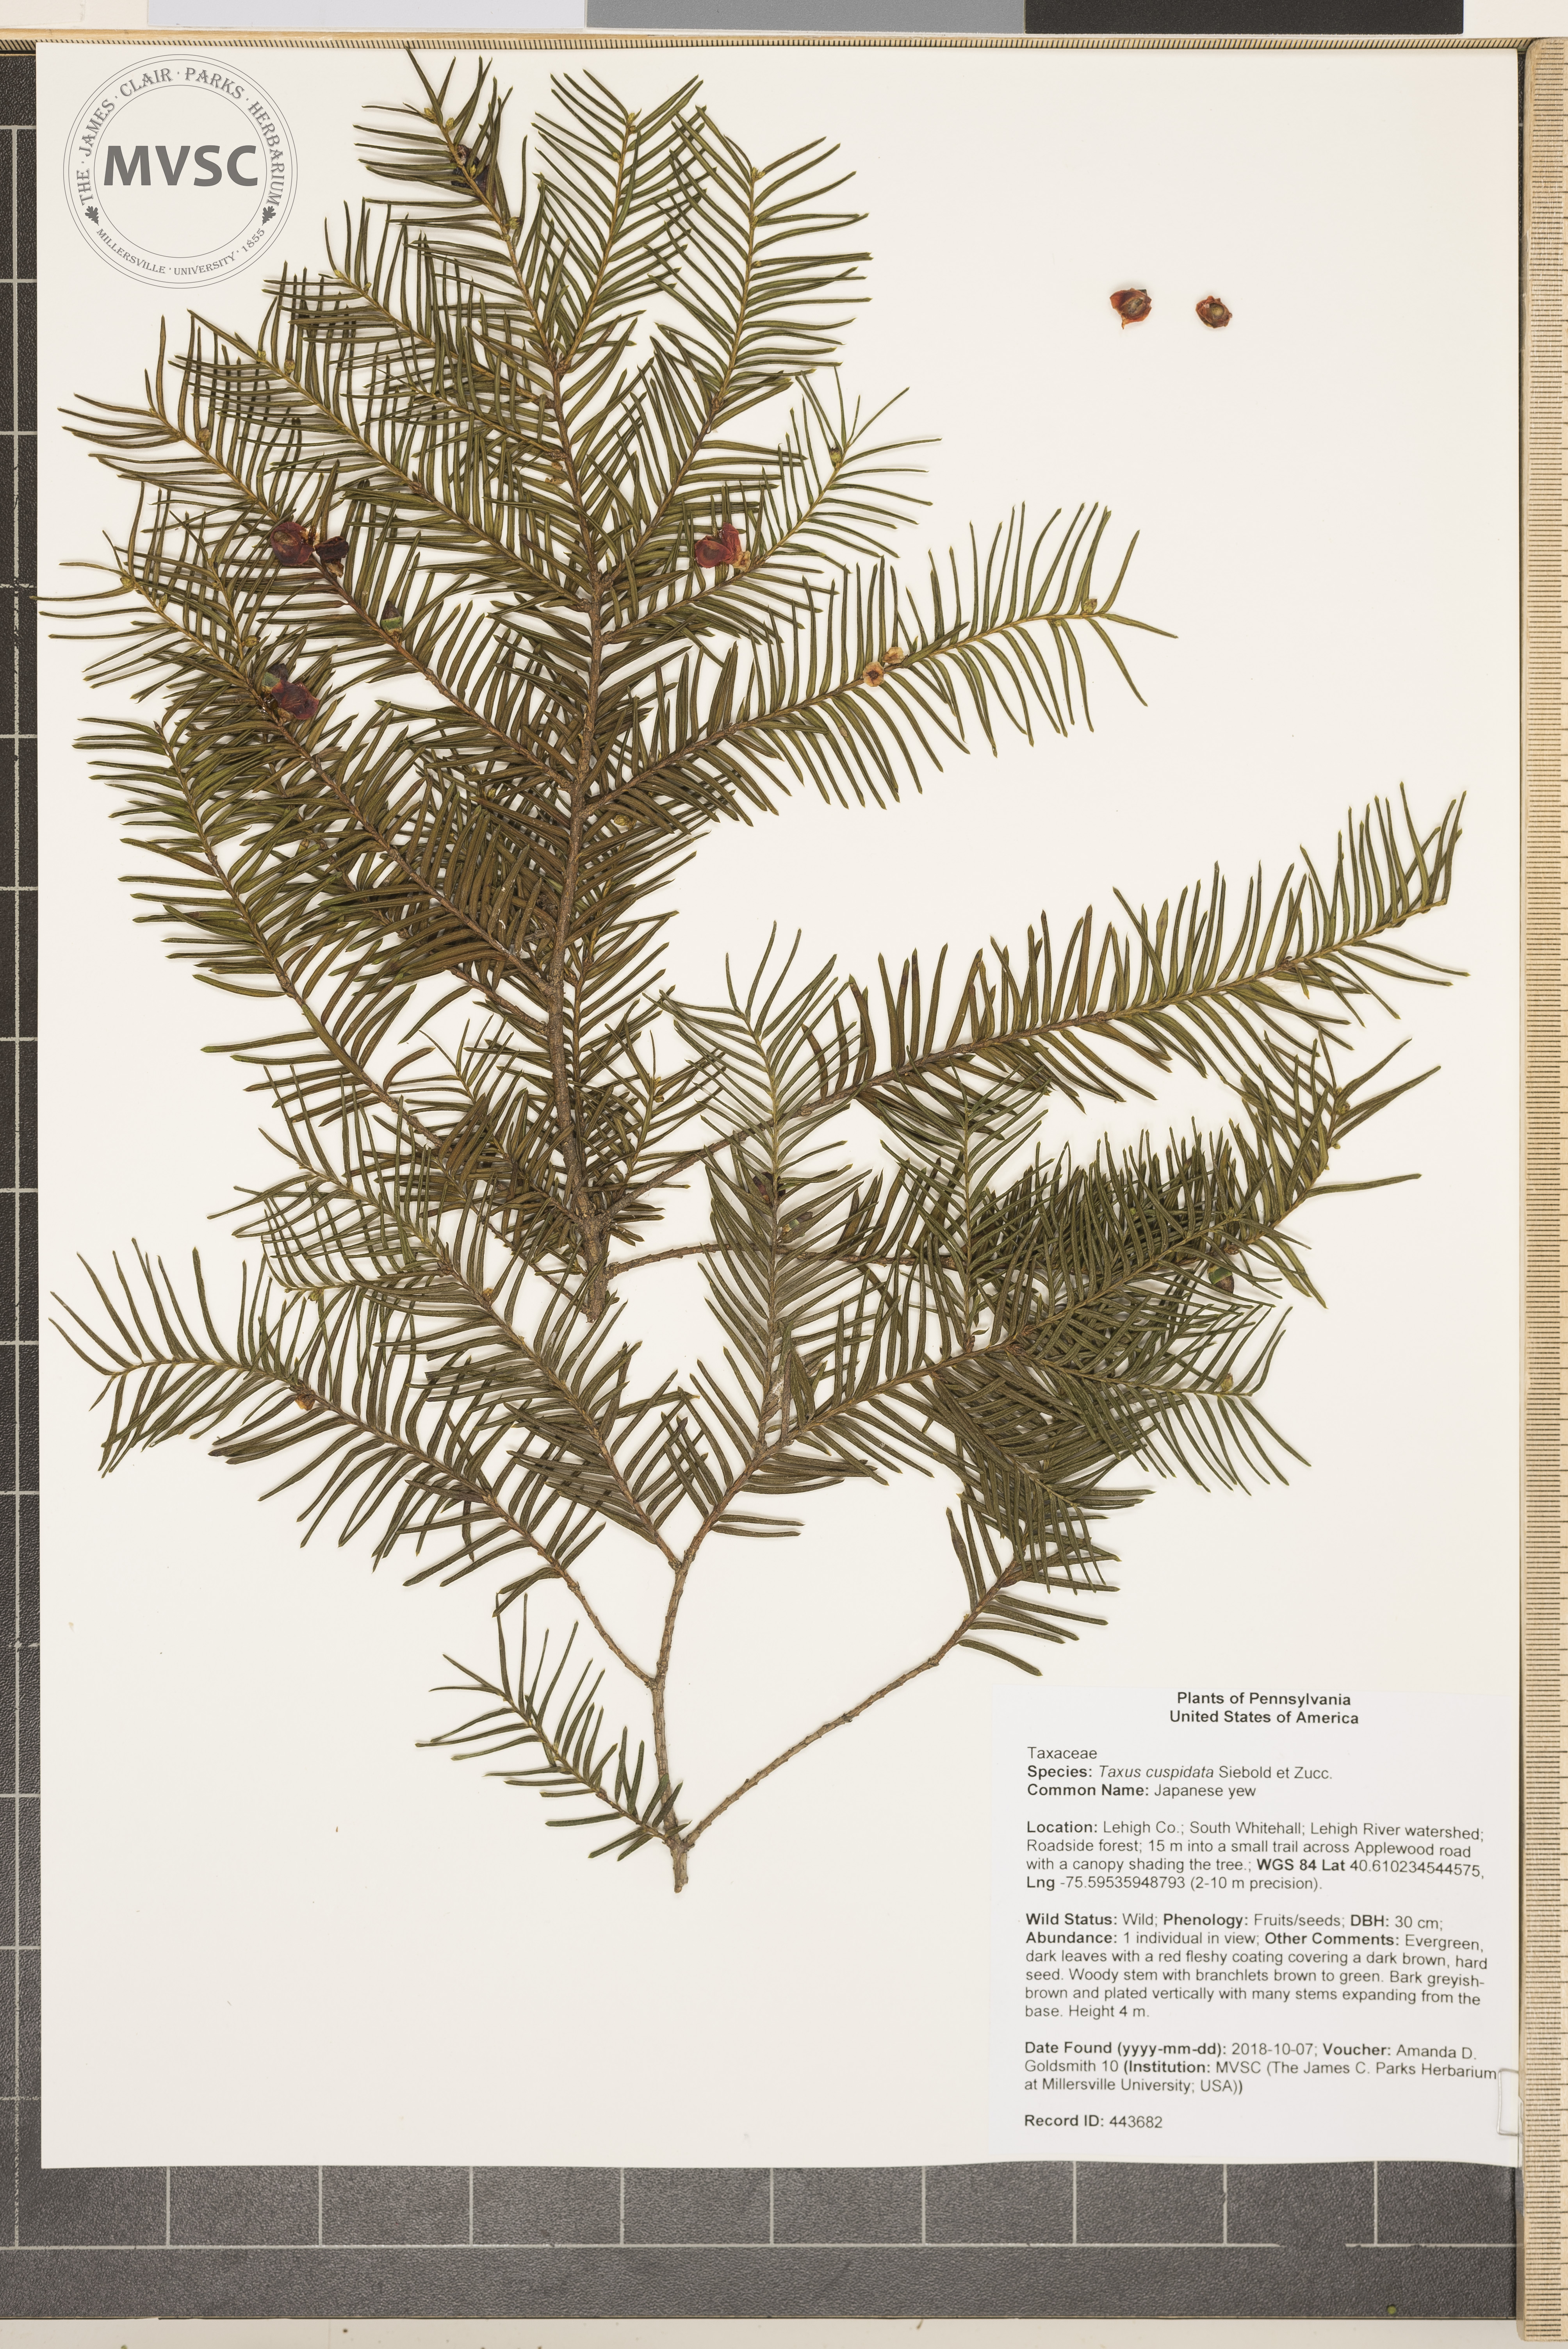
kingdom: Plantae
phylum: Tracheophyta
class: Pinopsida
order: Pinales
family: Taxaceae
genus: Taxus
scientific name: Taxus cuspidata
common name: Japanese yew
